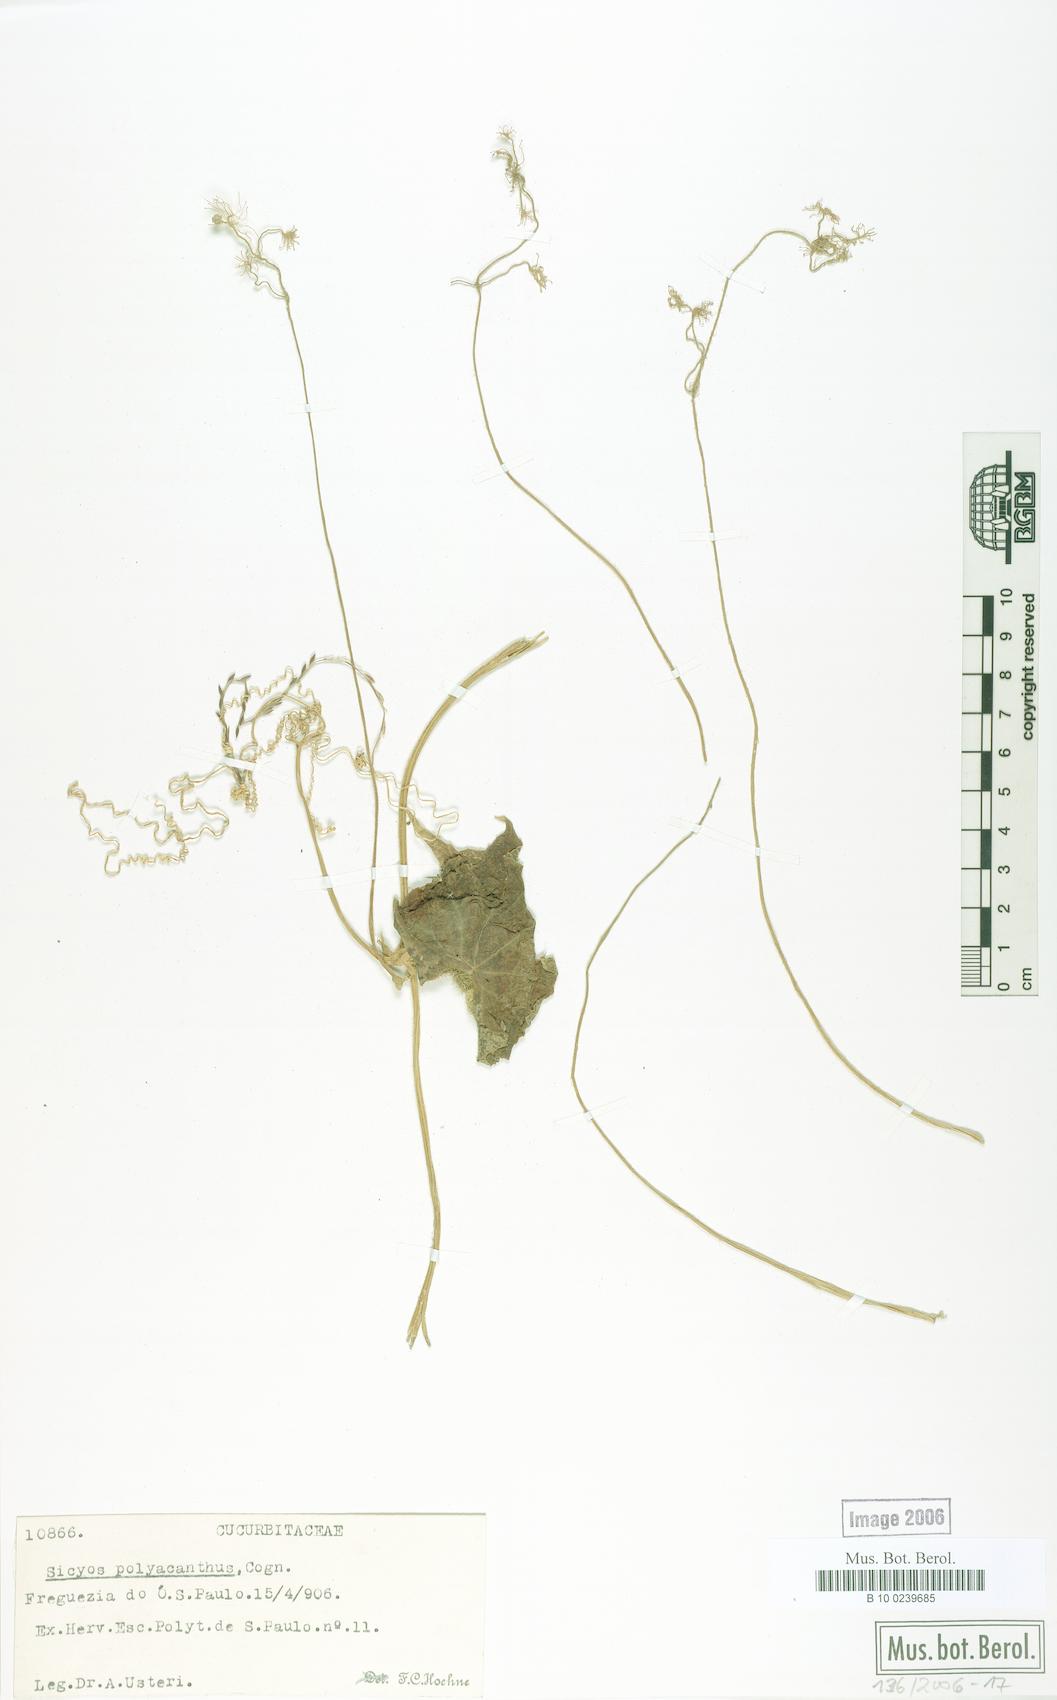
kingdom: Plantae
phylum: Tracheophyta
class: Magnoliopsida
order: Cucurbitales
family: Cucurbitaceae
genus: Sicyos
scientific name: Sicyos polyacanthos
